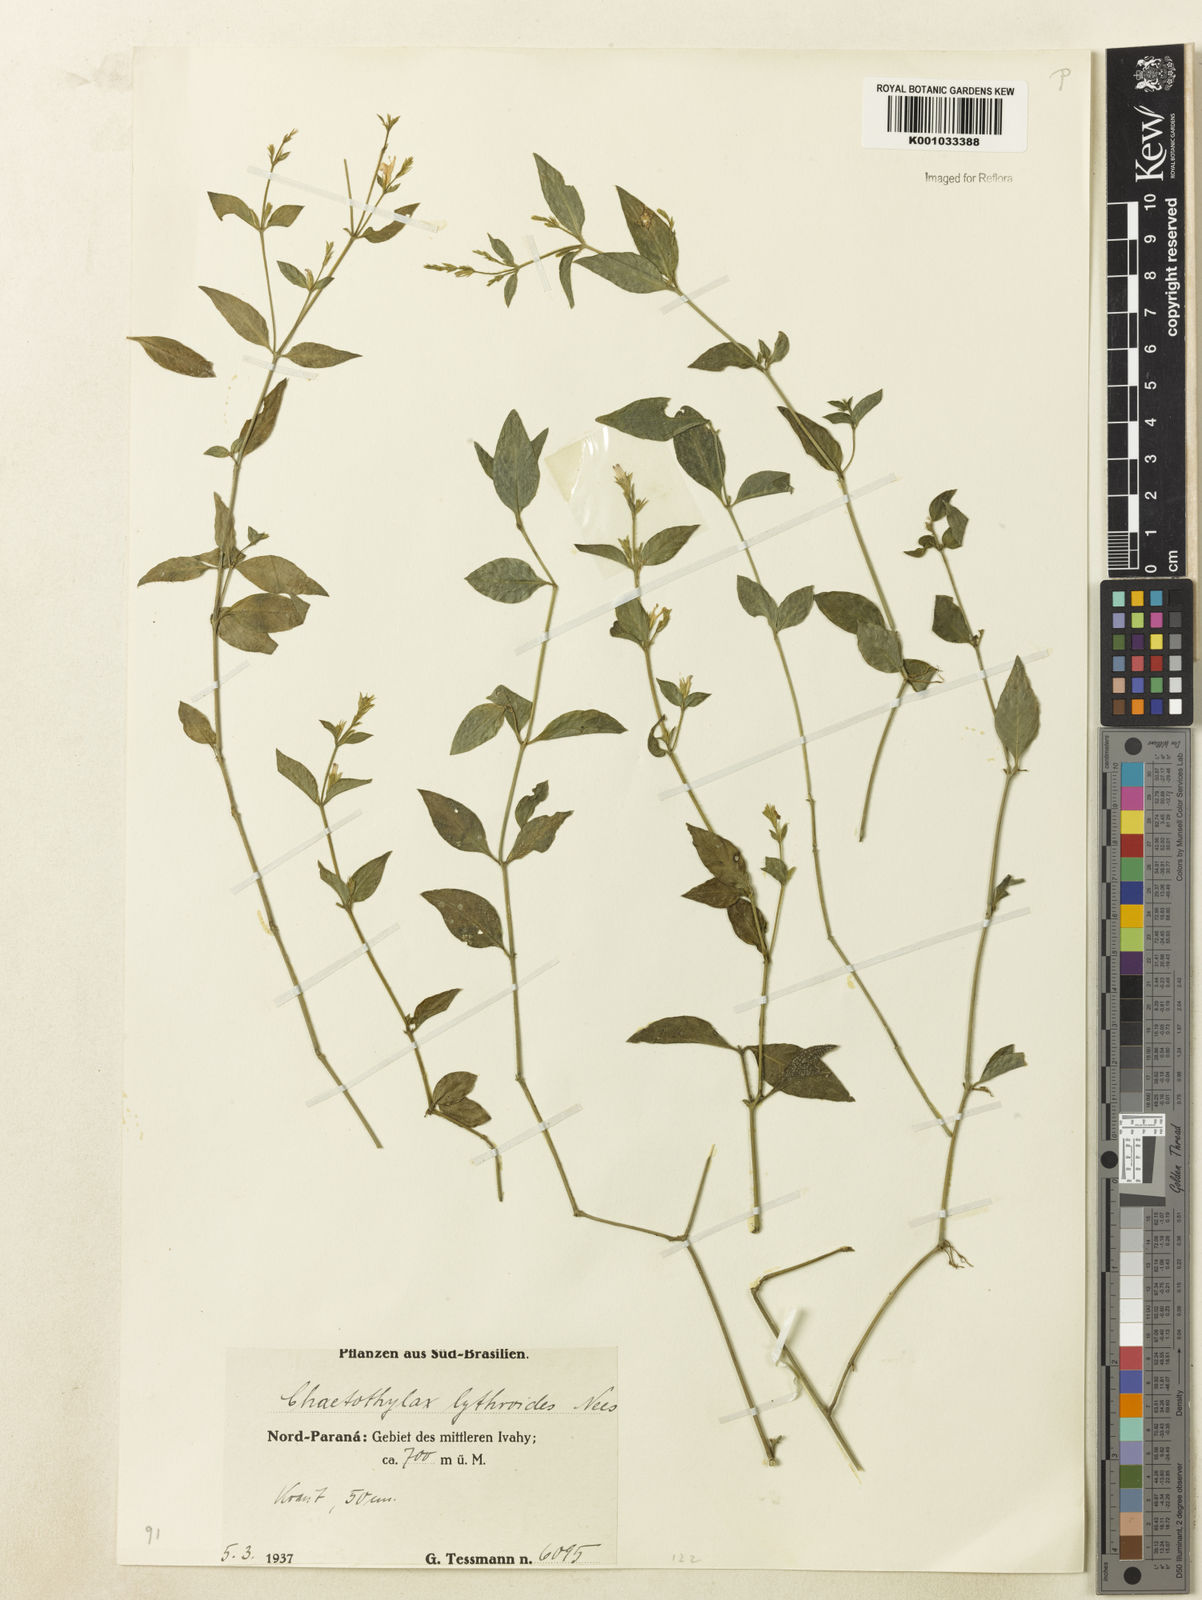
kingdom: Plantae
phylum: Tracheophyta
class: Magnoliopsida
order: Lamiales
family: Acanthaceae
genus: Justicia
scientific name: Justicia lythroides
